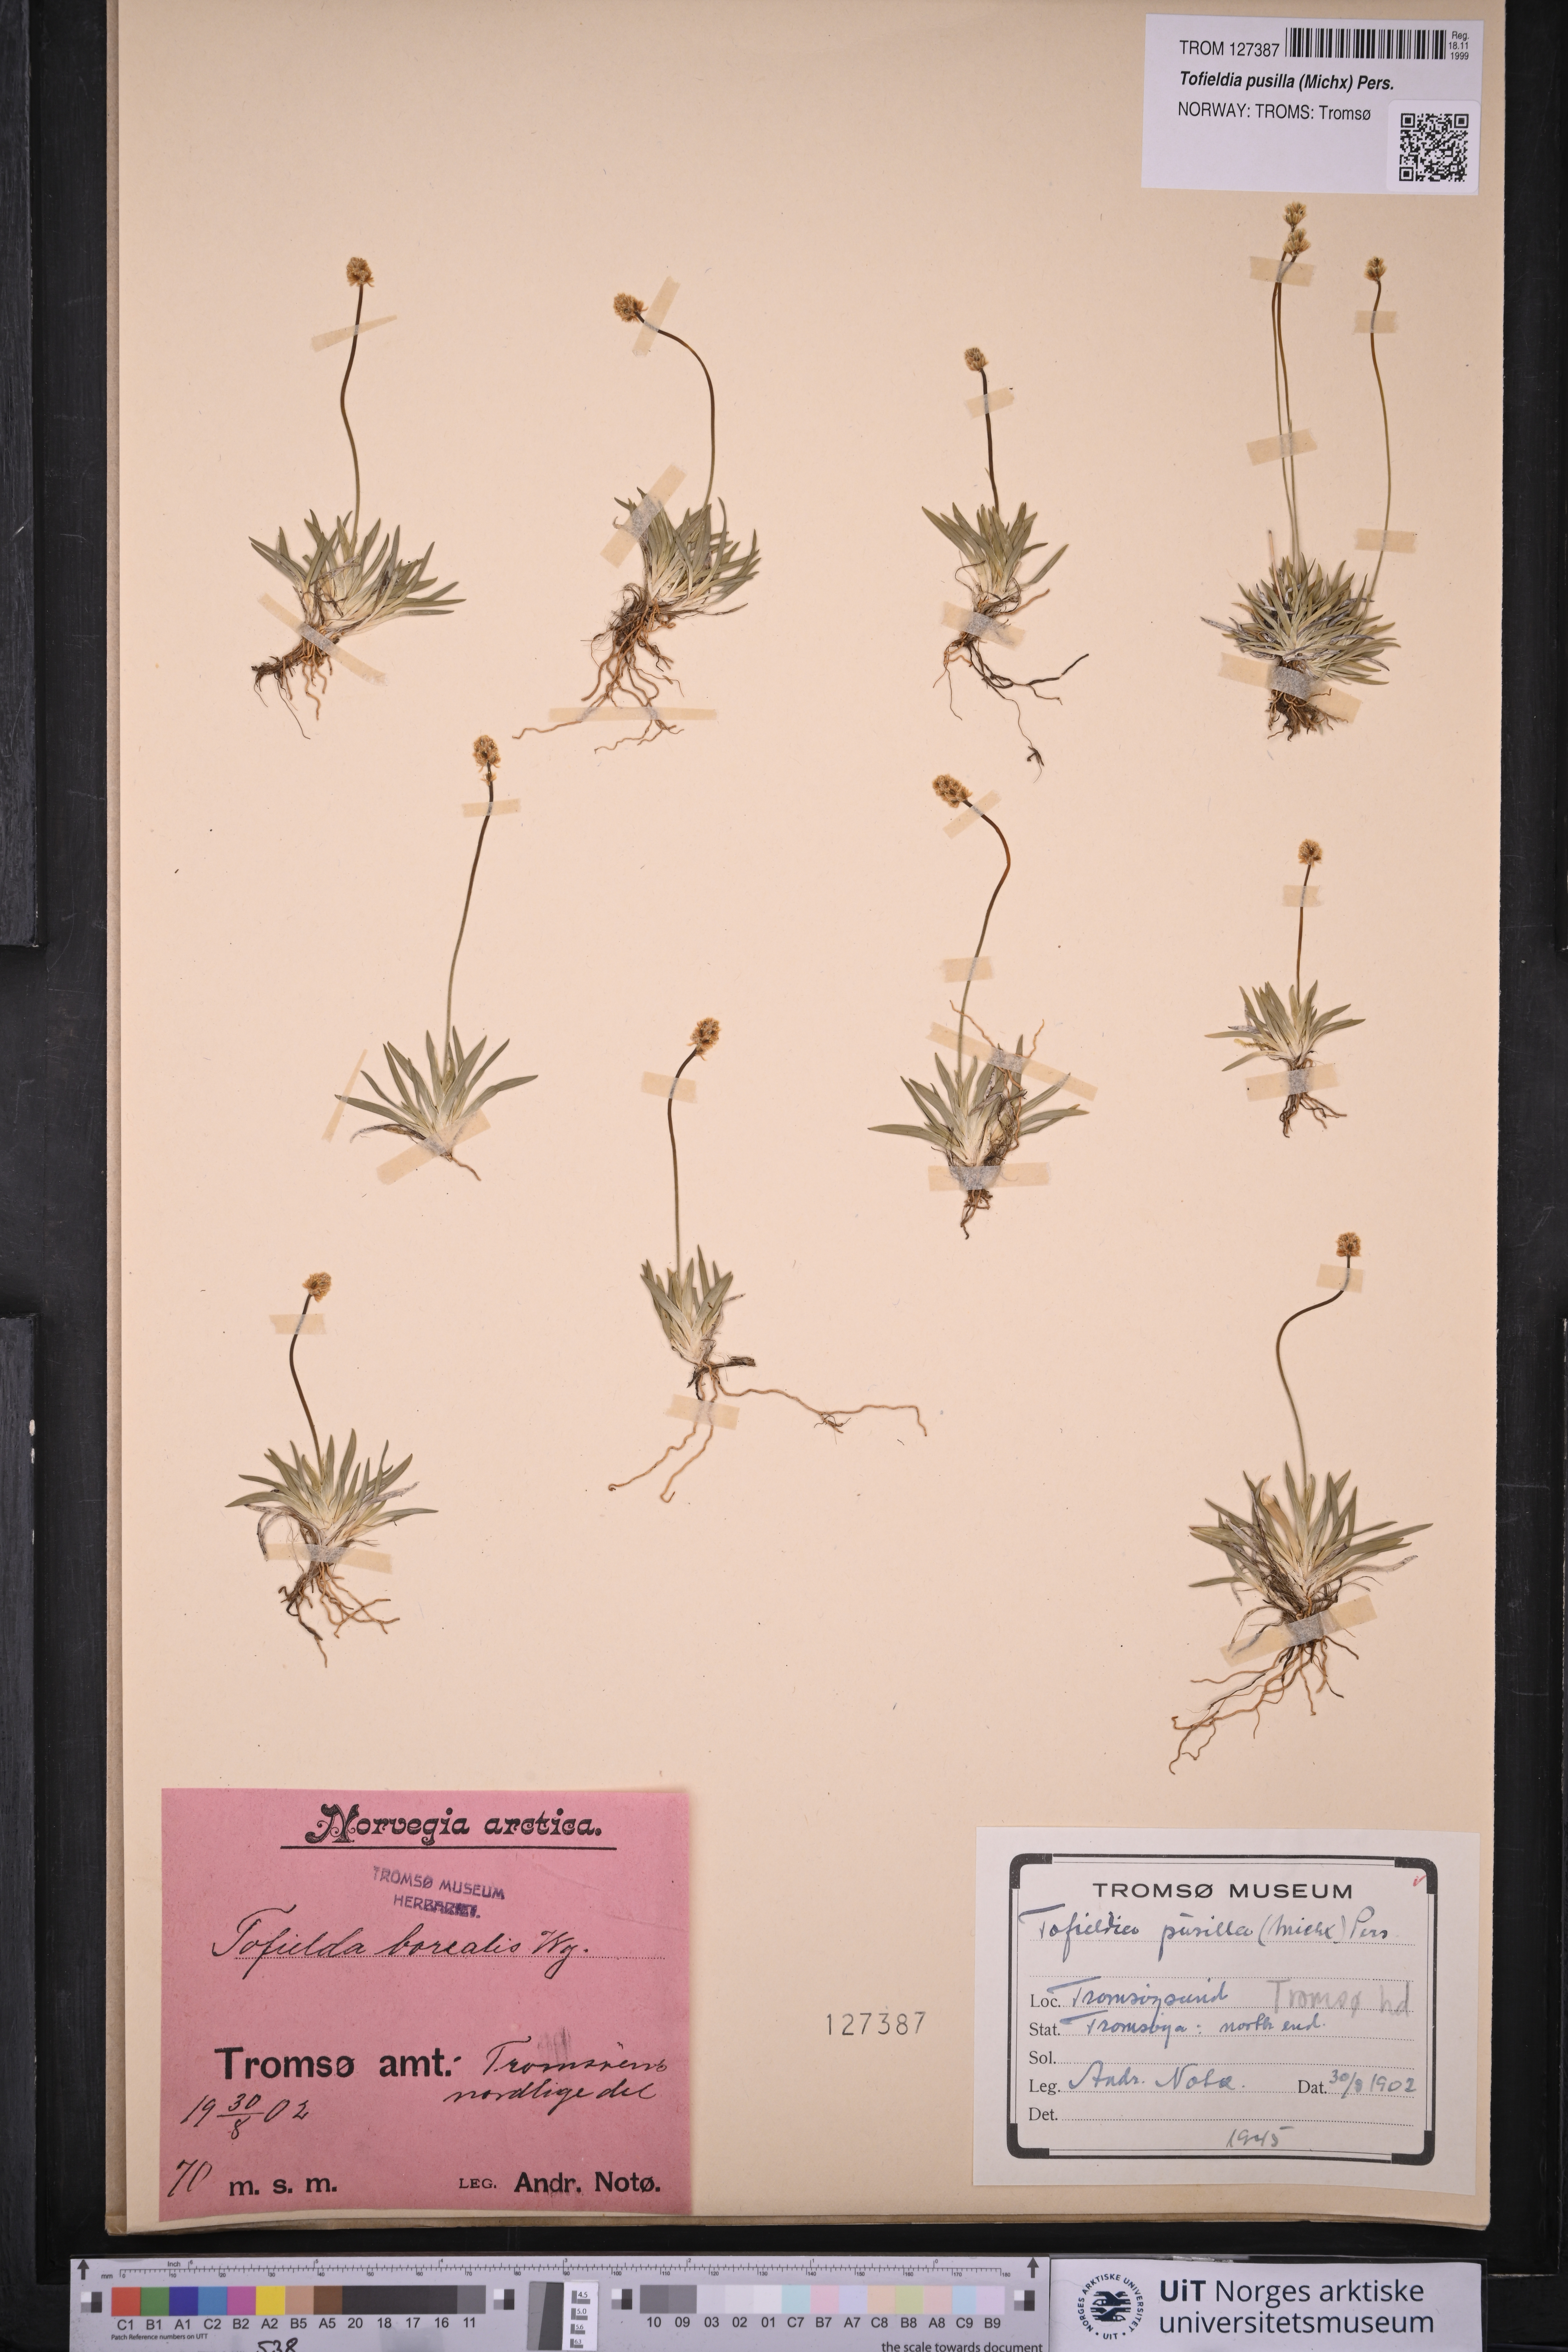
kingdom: Plantae
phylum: Tracheophyta
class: Liliopsida
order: Alismatales
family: Tofieldiaceae
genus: Tofieldia
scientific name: Tofieldia pusilla
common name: Scottish false asphodel
